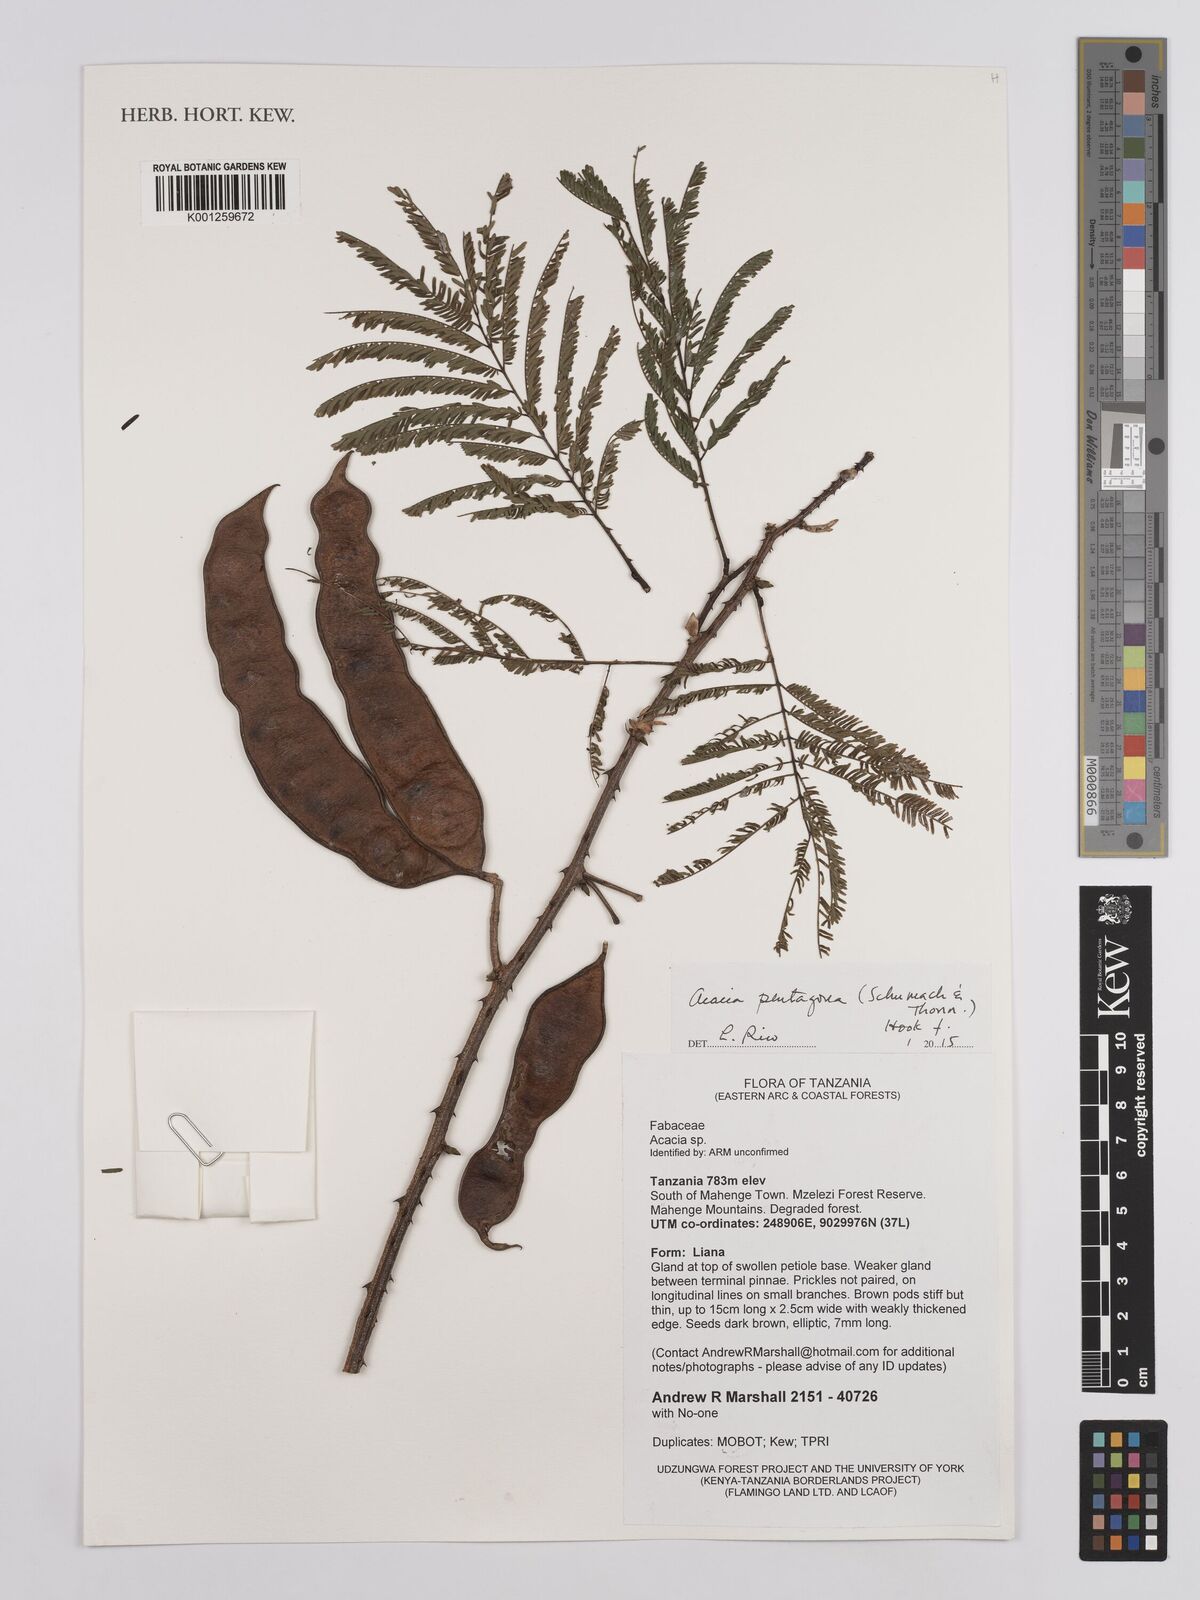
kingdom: Plantae
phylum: Tracheophyta
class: Magnoliopsida
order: Fabales
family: Fabaceae
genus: Senegalia
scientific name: Senegalia pentagona
